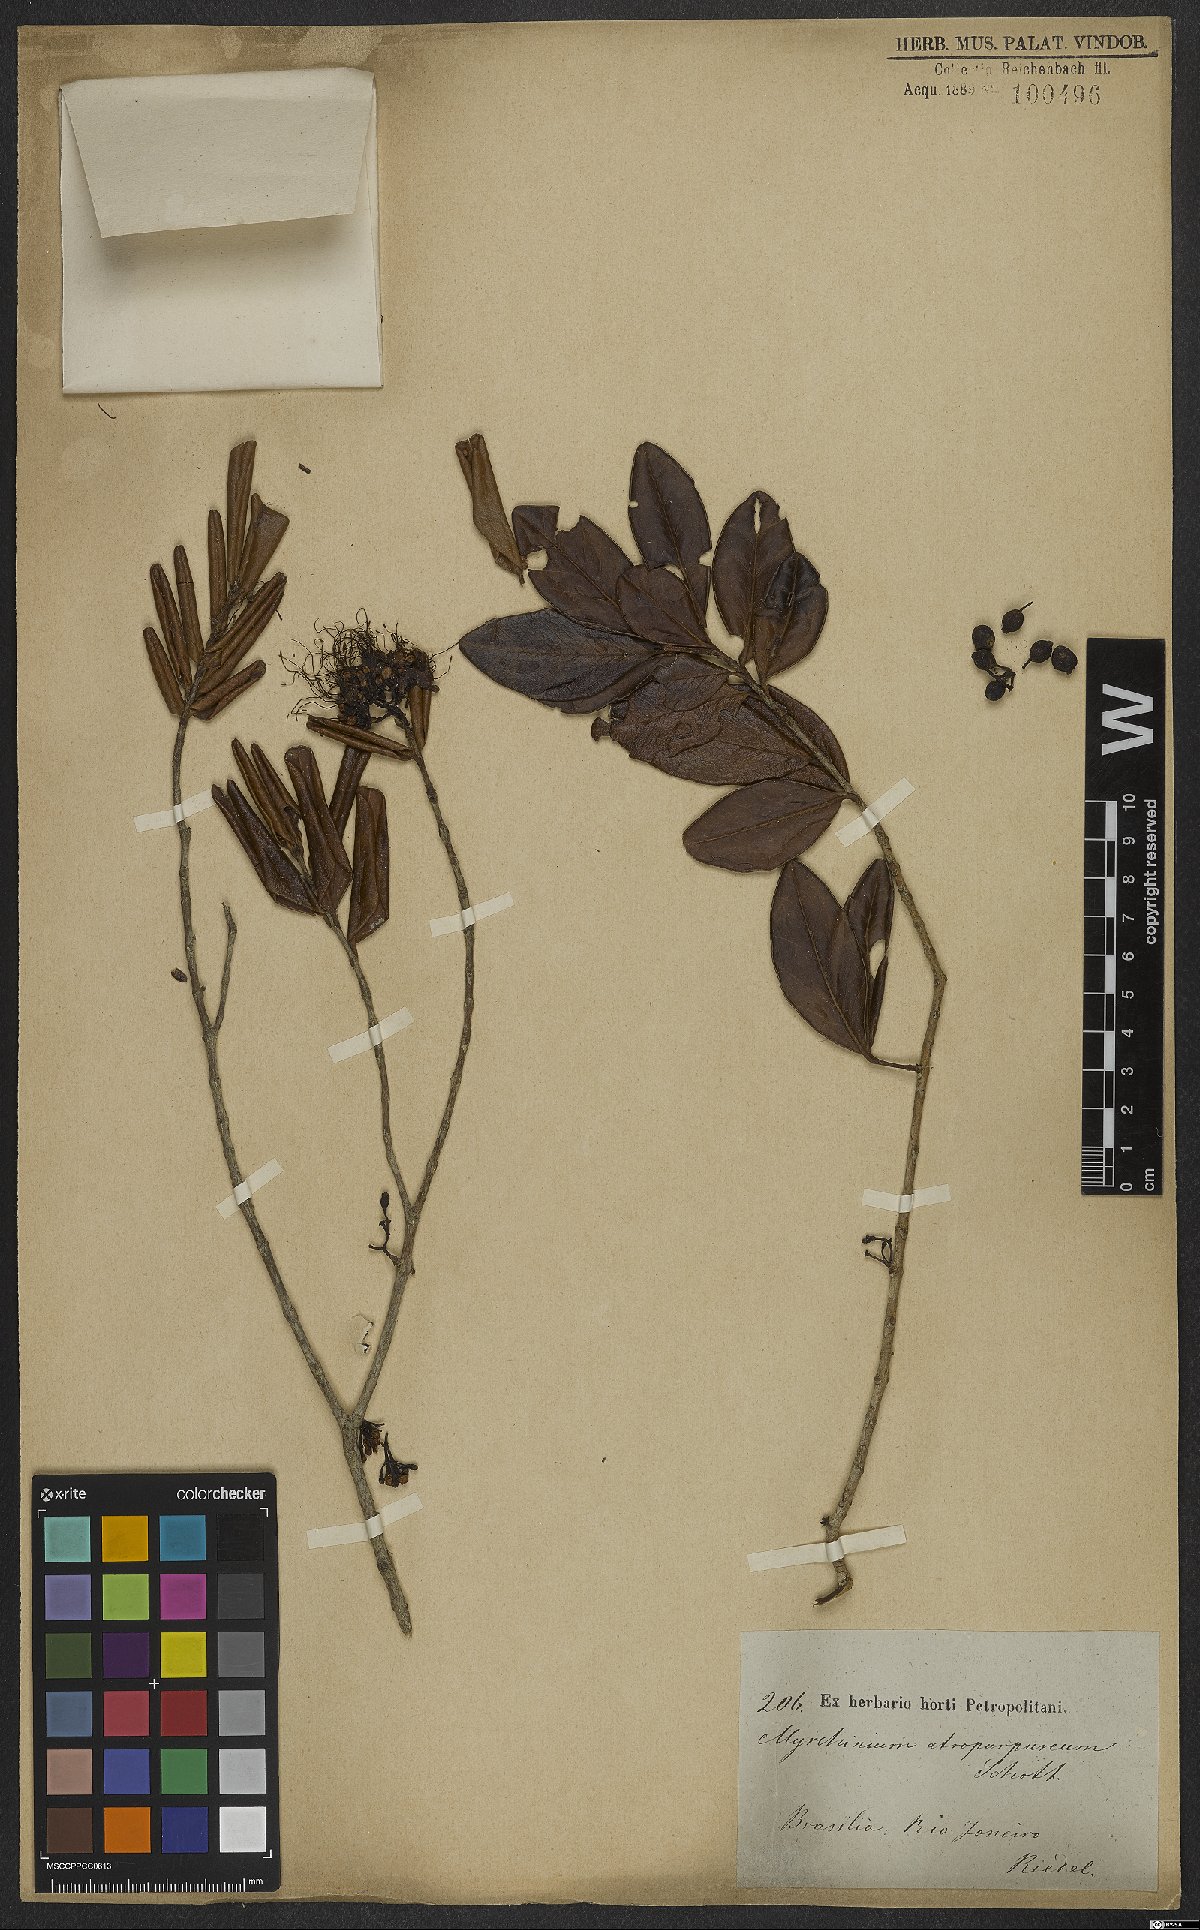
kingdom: Plantae
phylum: Tracheophyta
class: Magnoliopsida
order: Myrtales
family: Myrtaceae
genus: Myrrhinium
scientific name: Myrrhinium atropurpureum
